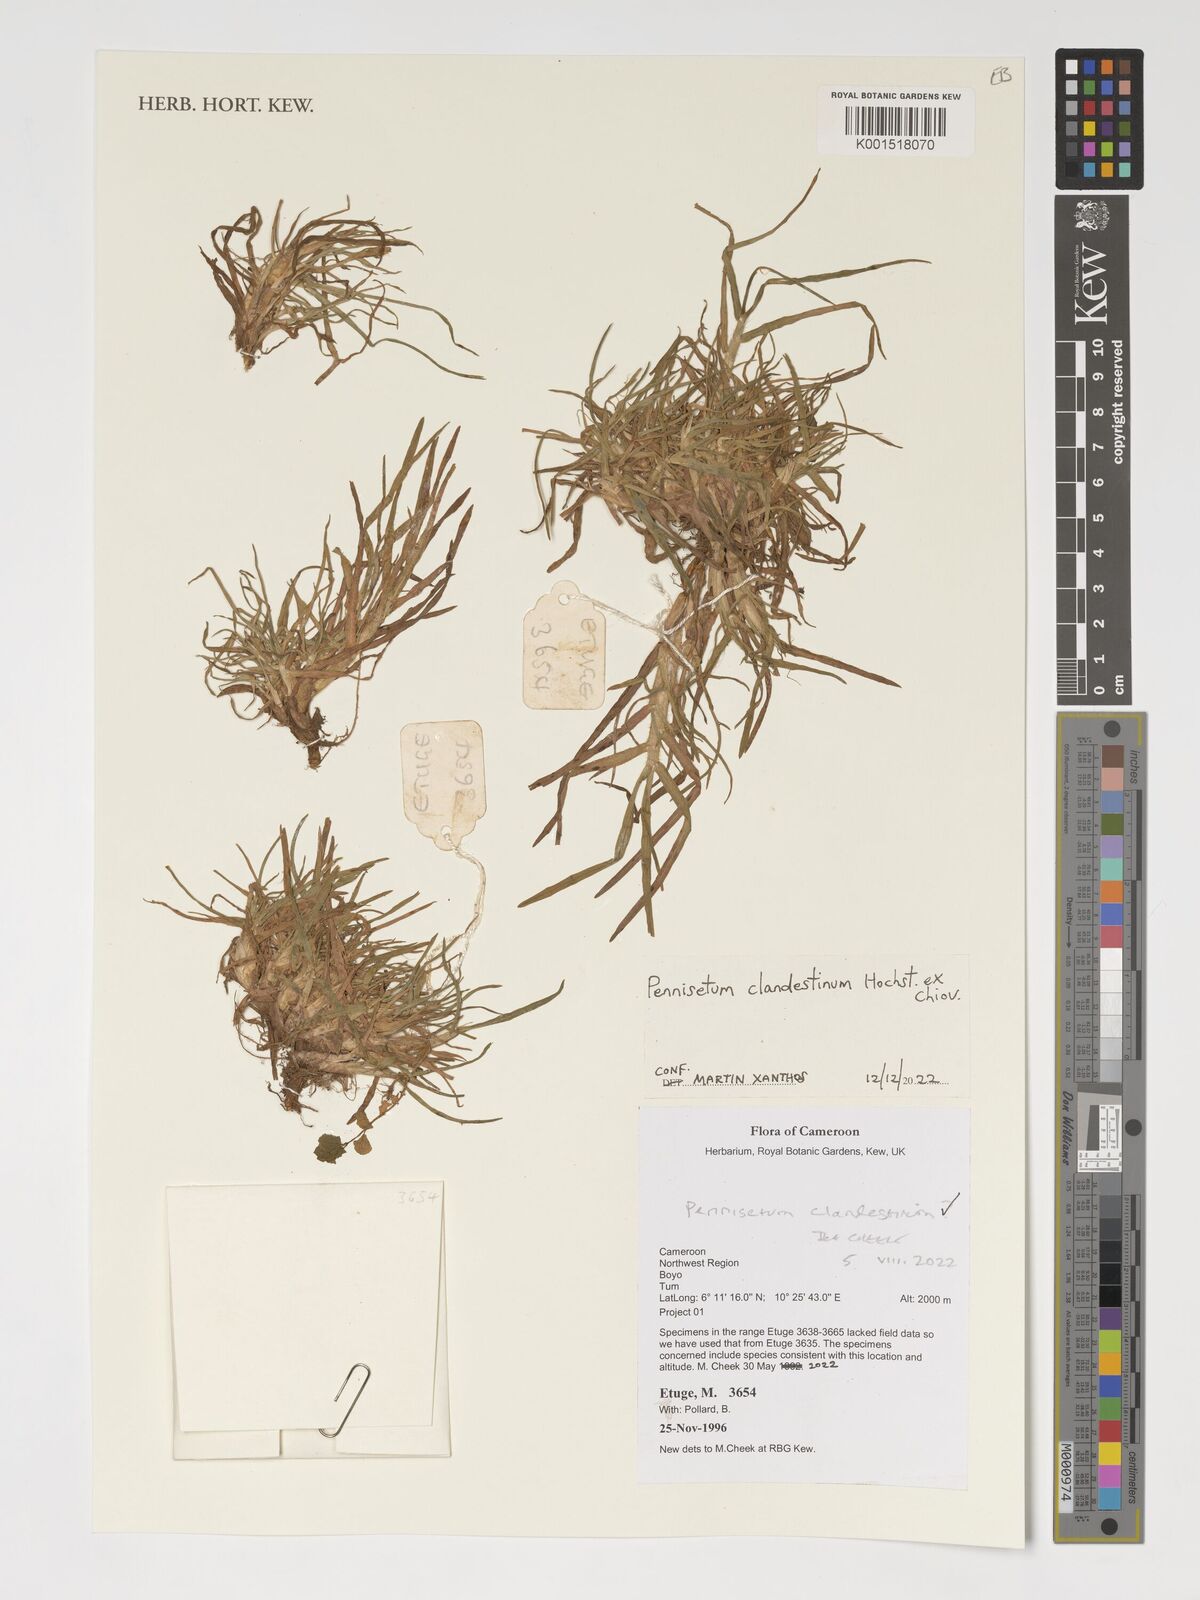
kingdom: Plantae
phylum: Tracheophyta
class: Liliopsida
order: Poales
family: Poaceae
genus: Cenchrus
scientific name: Cenchrus clandestinus
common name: Kikuyugrass
